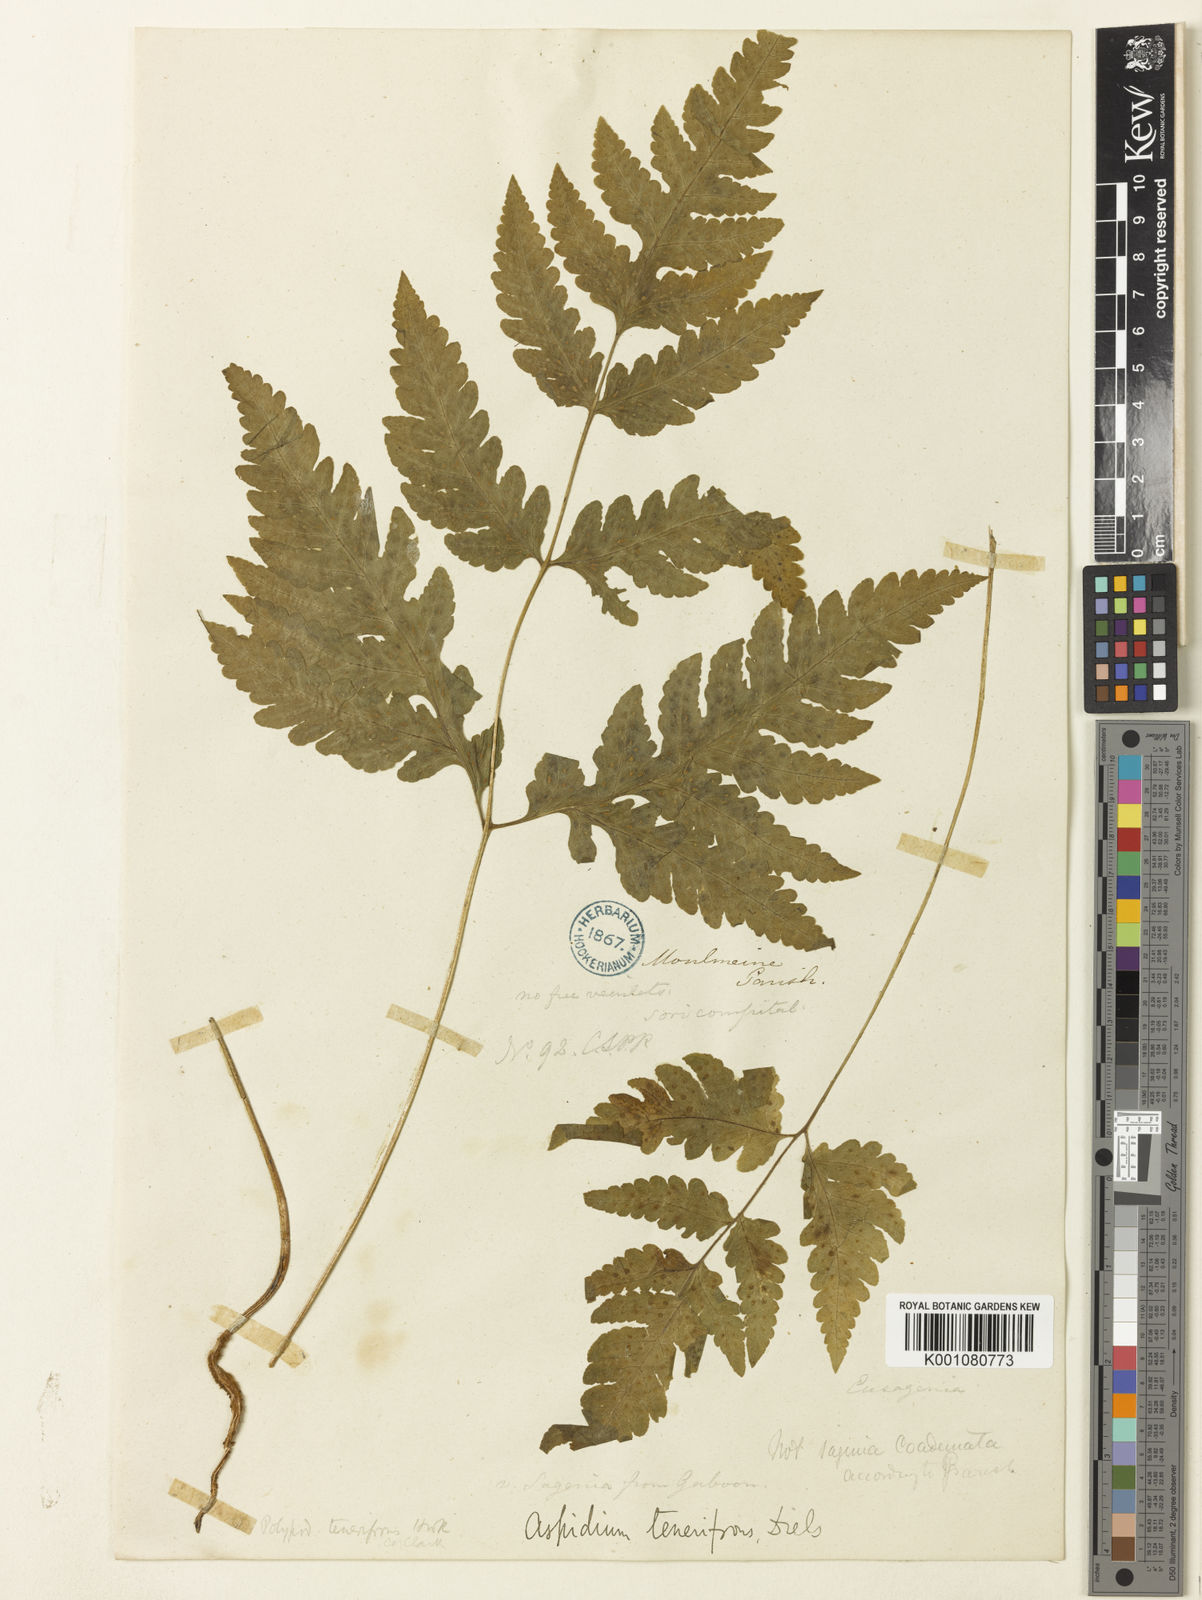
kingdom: Plantae
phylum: Tracheophyta
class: Polypodiopsida
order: Polypodiales
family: Tectariaceae
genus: Tectaria
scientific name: Tectaria tenerifrons
